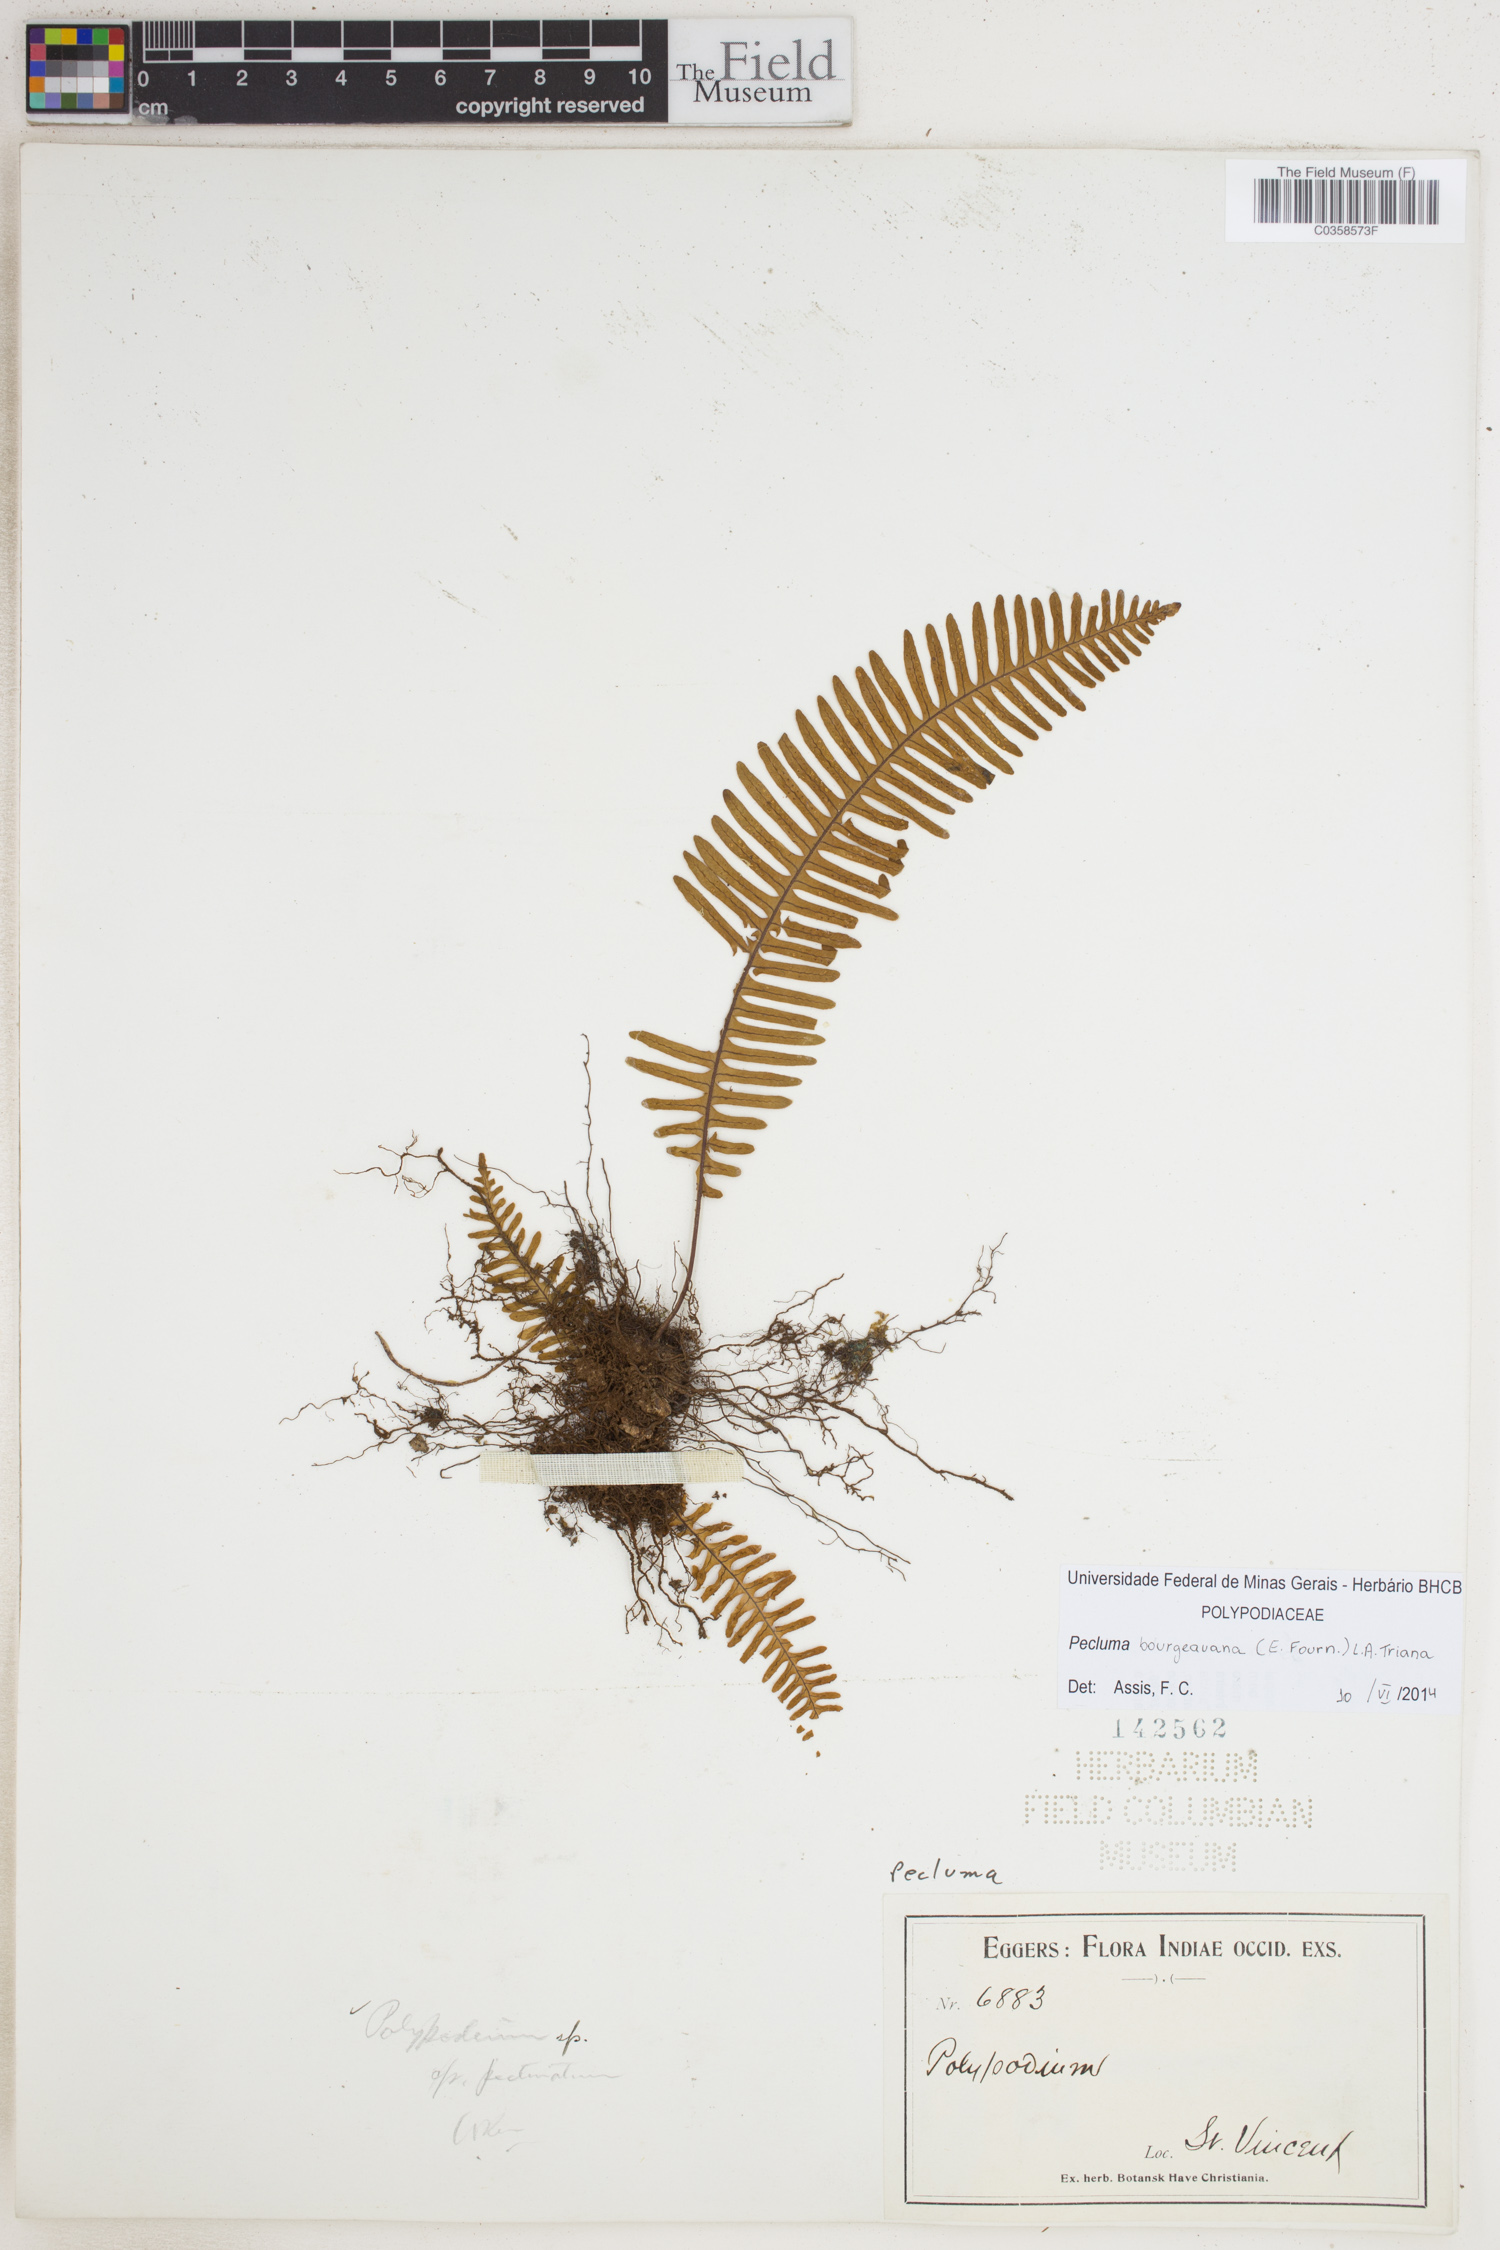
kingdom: Plantae
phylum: Tracheophyta
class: Polypodiopsida
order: Polypodiales
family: Polypodiaceae
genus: Pecluma
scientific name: Pecluma bourgeauana
